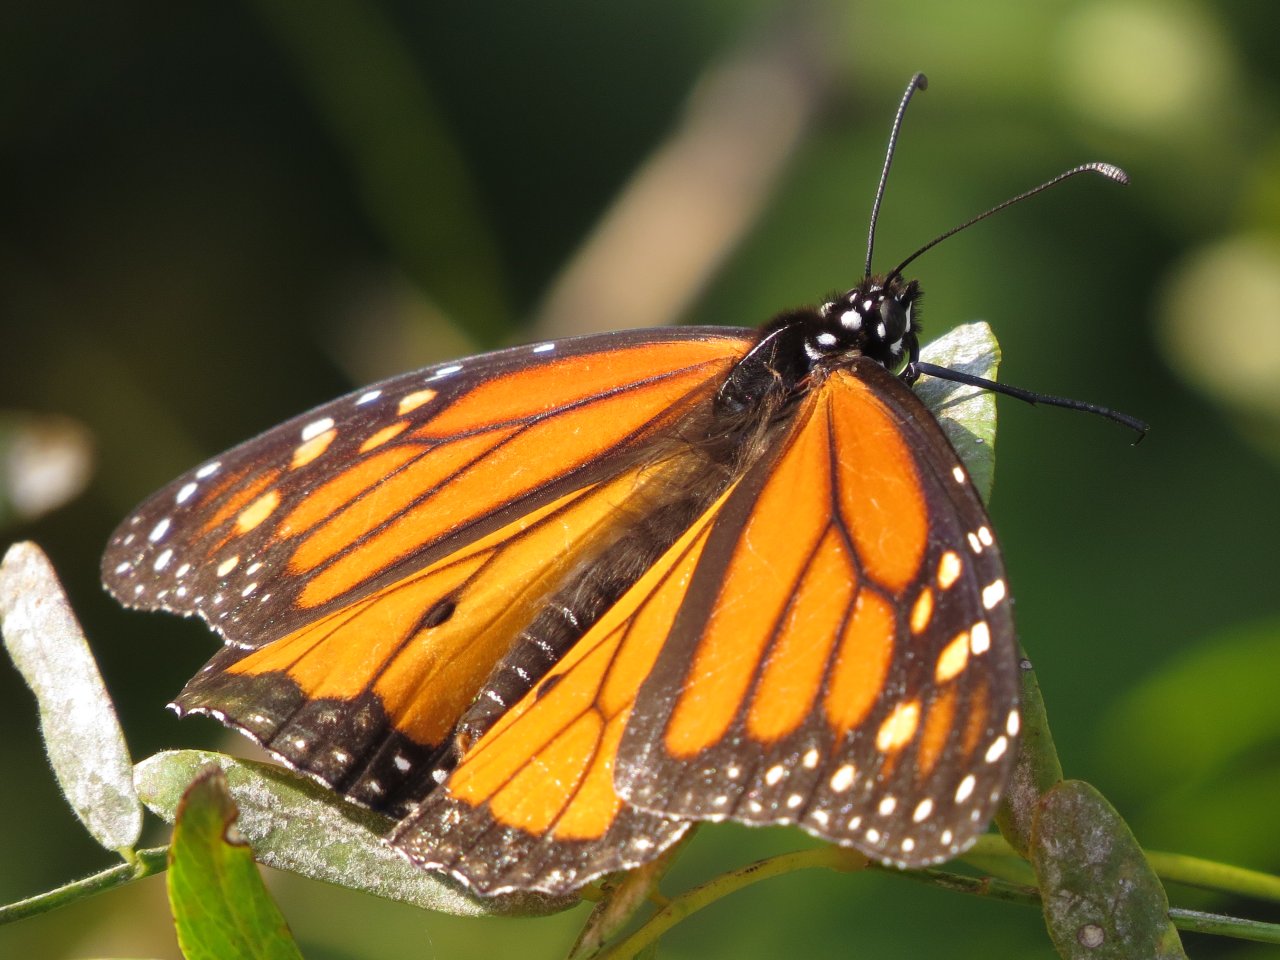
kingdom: Animalia
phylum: Arthropoda
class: Insecta
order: Lepidoptera
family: Nymphalidae
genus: Danaus
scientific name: Danaus plexippus
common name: Monarch
